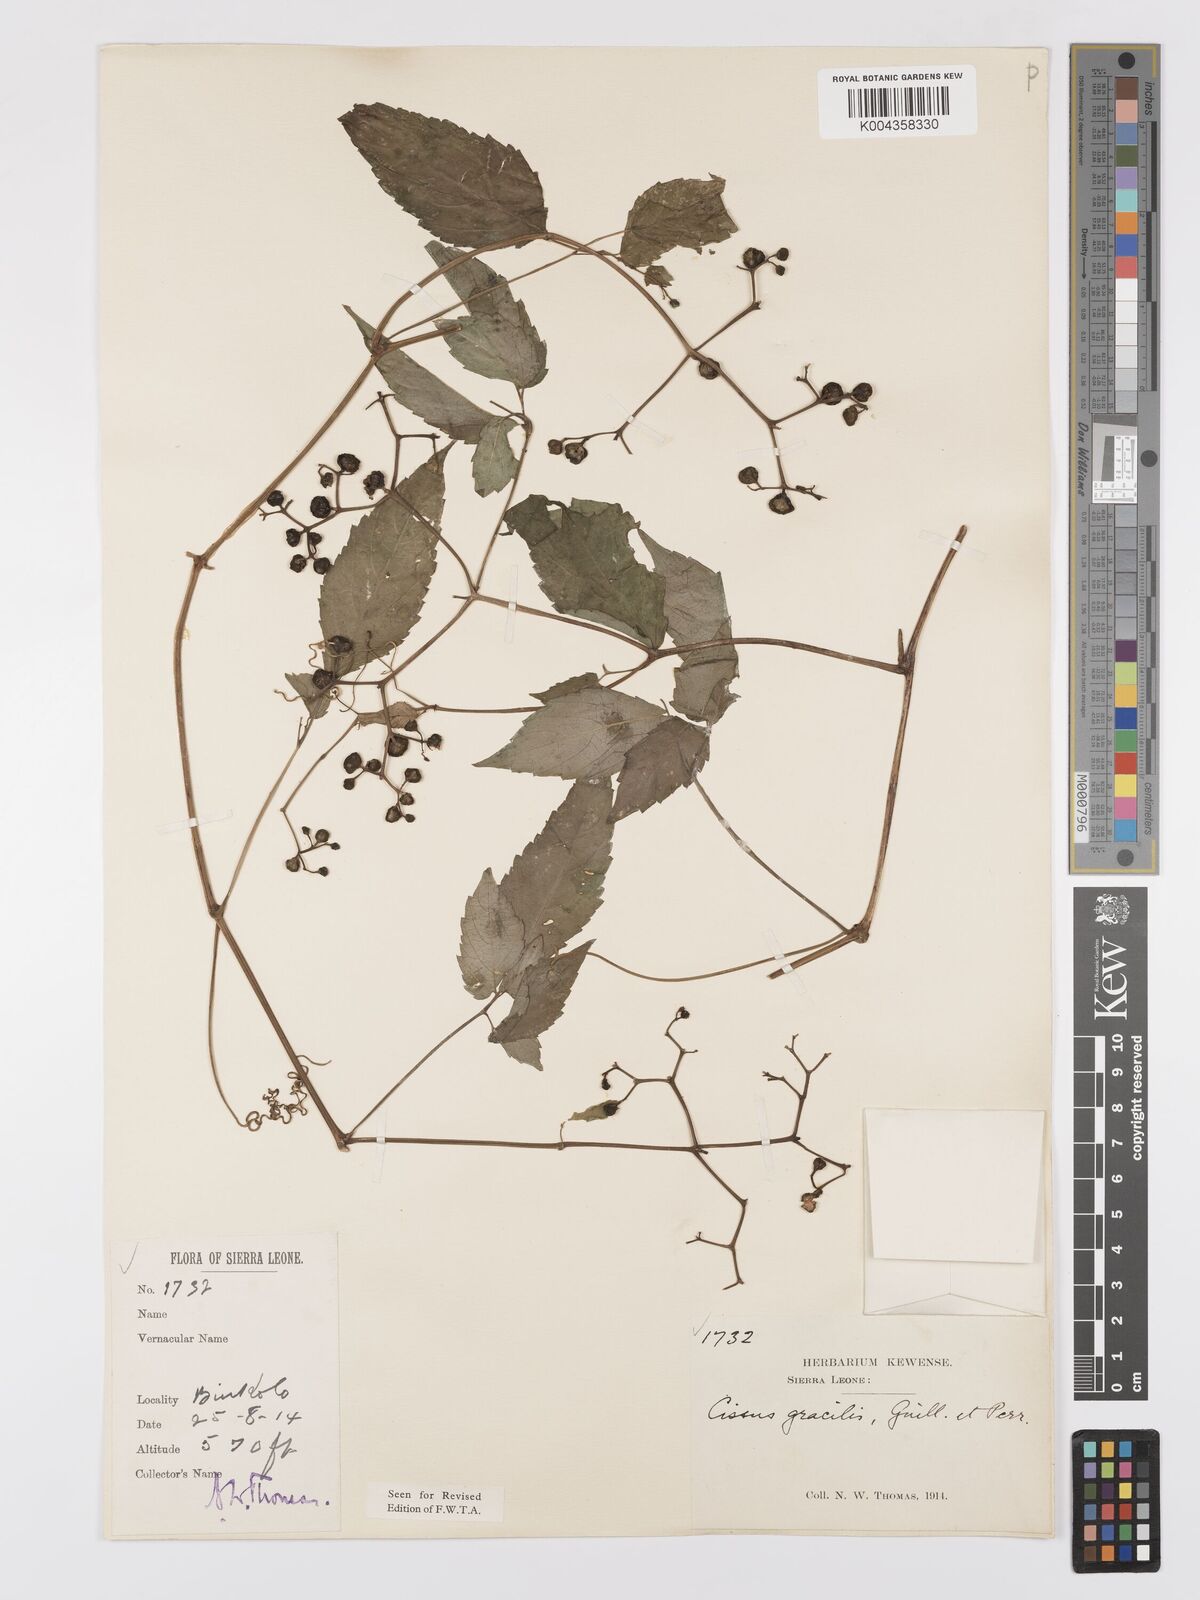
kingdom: Plantae
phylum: Tracheophyta
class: Magnoliopsida
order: Vitales
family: Vitaceae
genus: Afrocayratia
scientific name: Afrocayratia gracilis
